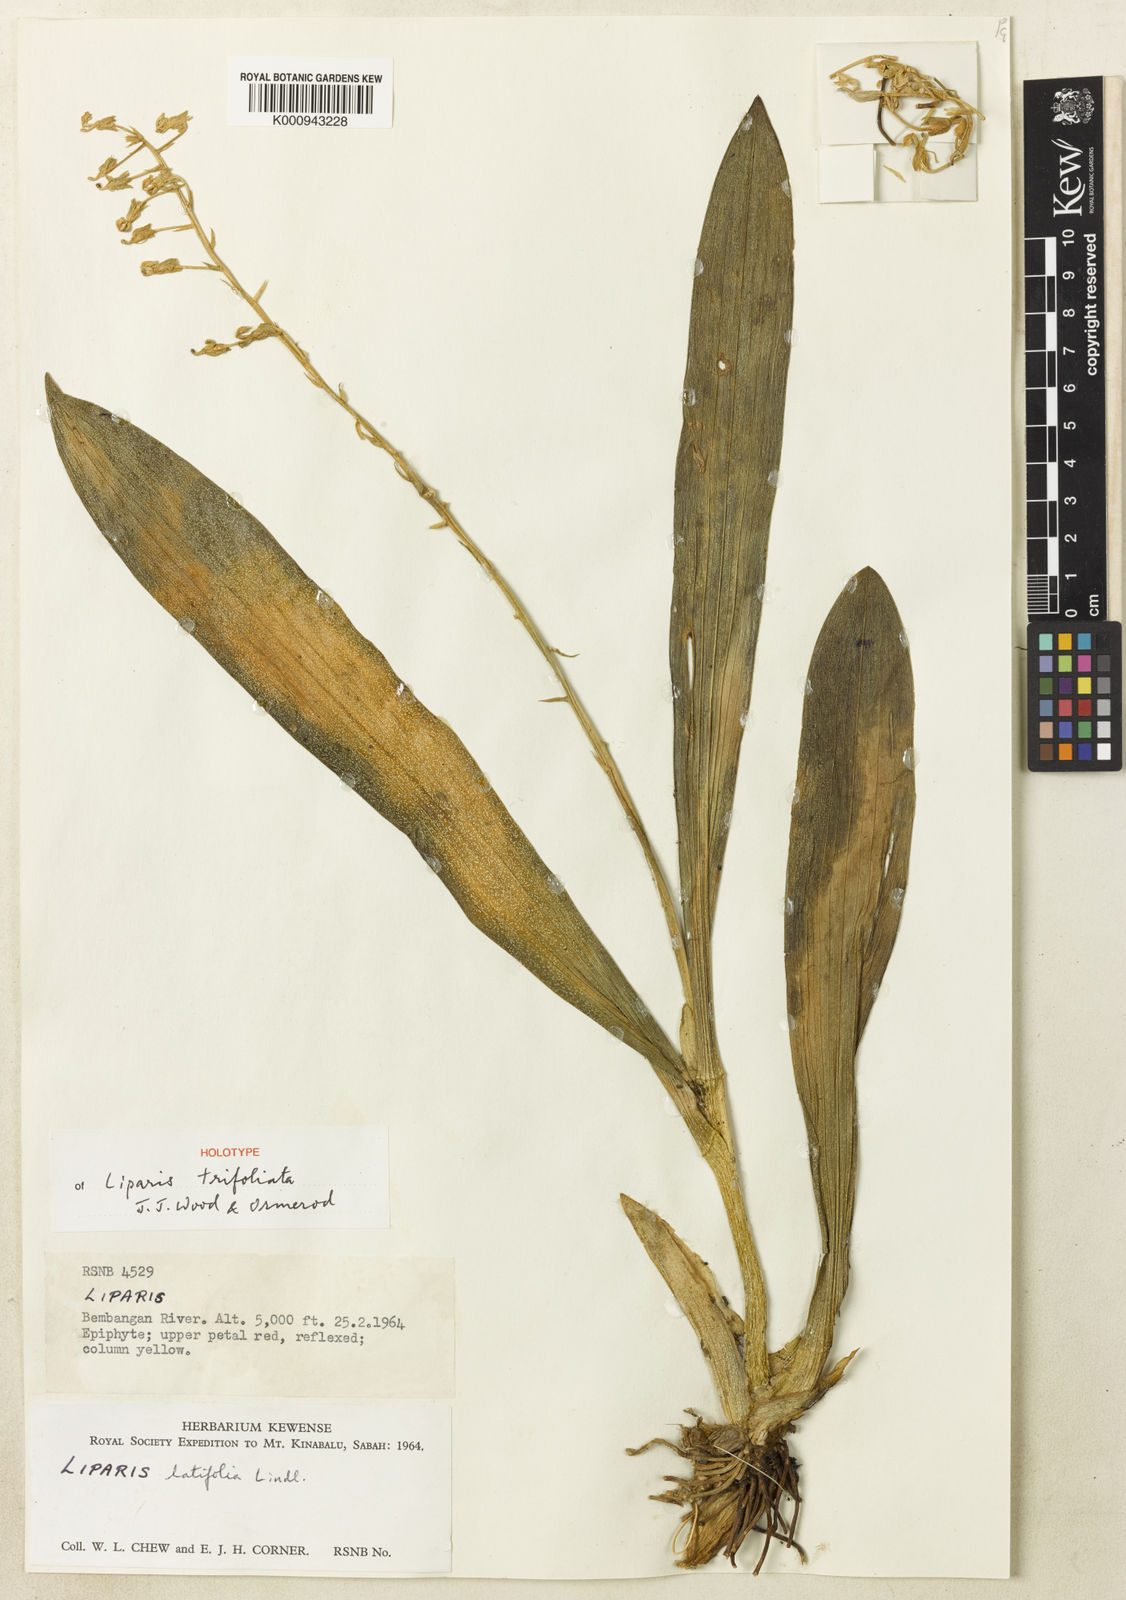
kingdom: Plantae
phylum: Tracheophyta
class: Liliopsida
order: Asparagales
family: Orchidaceae
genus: Liparis
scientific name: Liparis trifoliata
